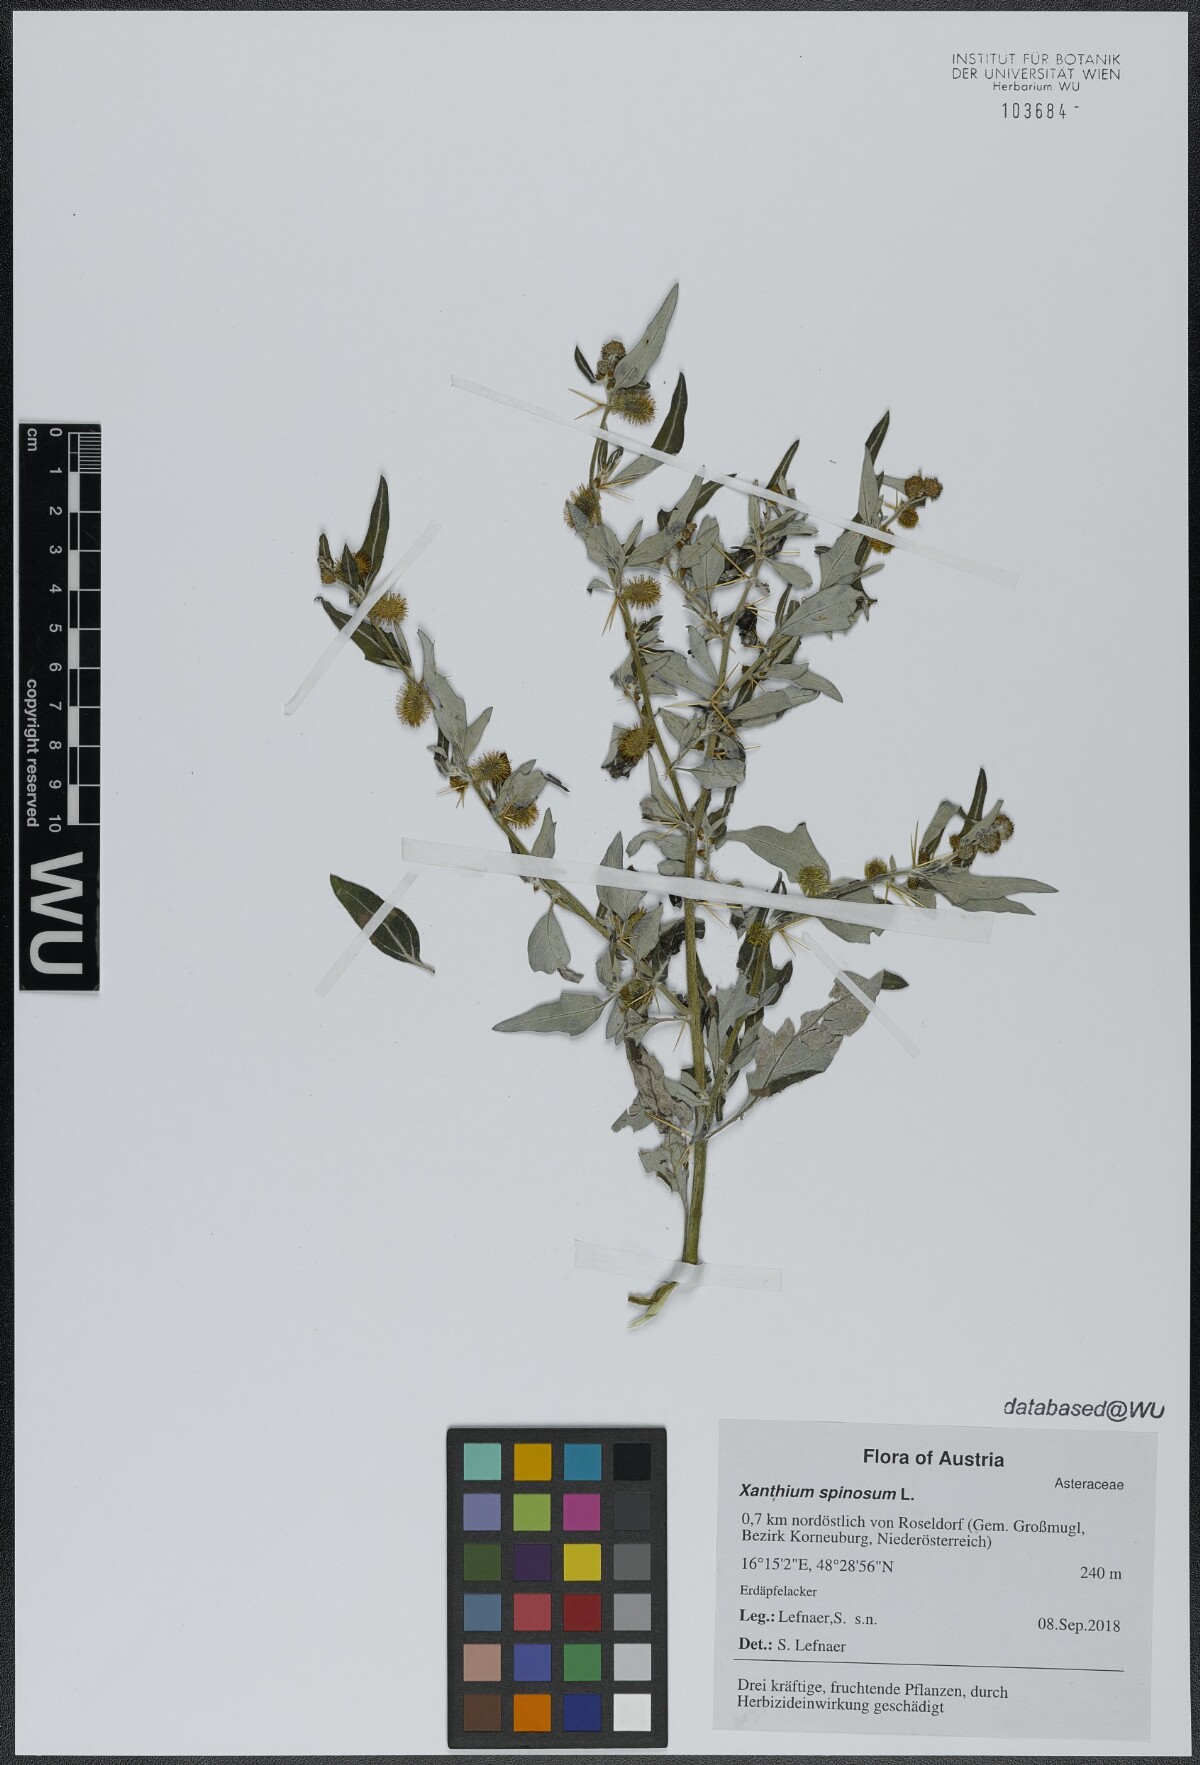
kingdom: Plantae
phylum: Tracheophyta
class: Magnoliopsida
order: Asterales
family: Asteraceae
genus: Xanthium
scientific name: Xanthium spinosum
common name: Spiny cocklebur
